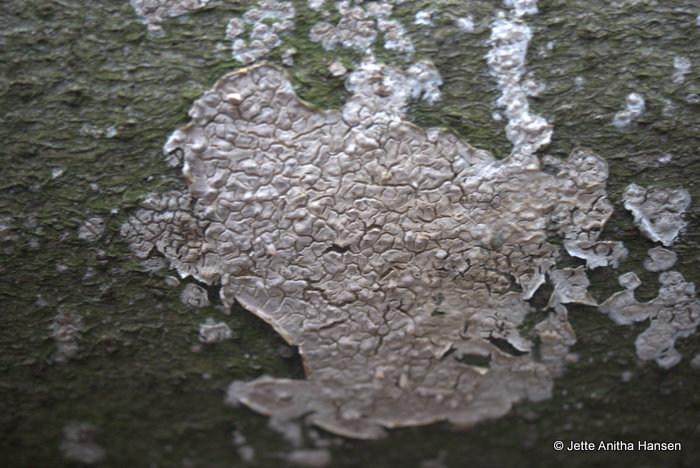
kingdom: Fungi
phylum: Basidiomycota
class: Agaricomycetes
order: Agaricales
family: Physalacriaceae
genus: Cylindrobasidium
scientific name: Cylindrobasidium evolvens
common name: sprækkehinde
